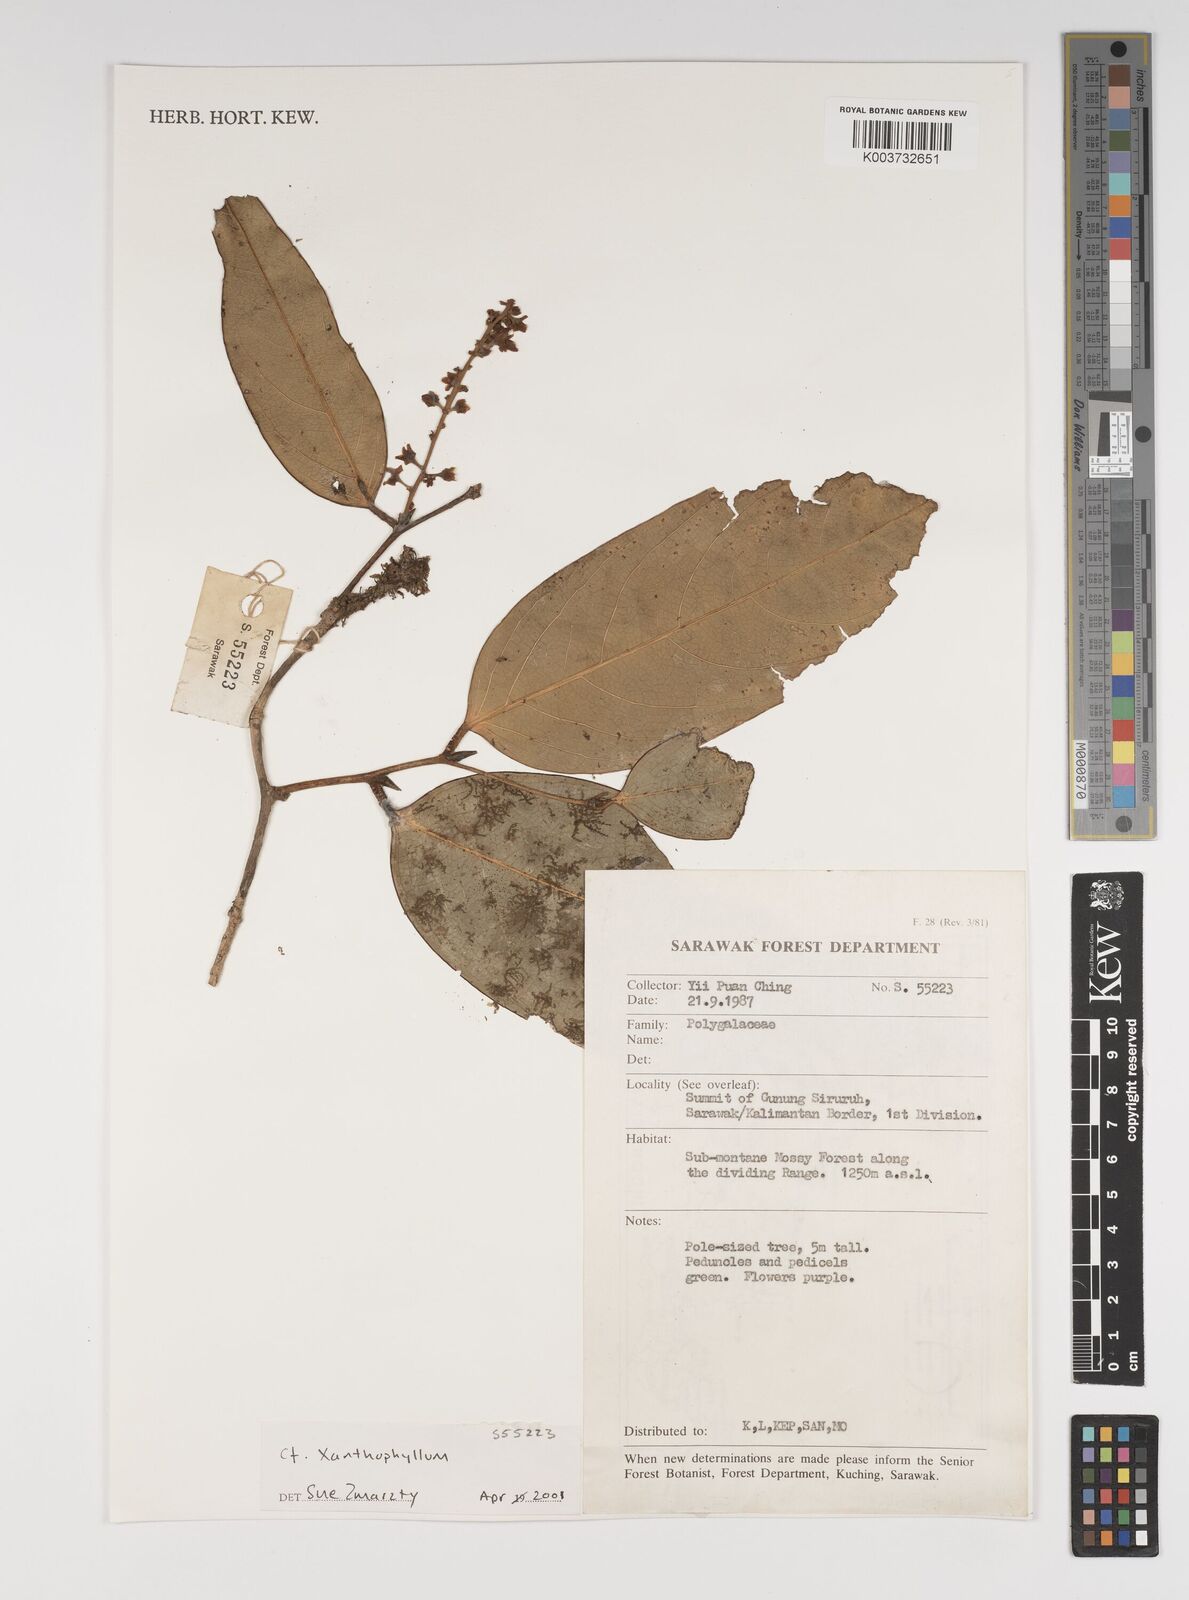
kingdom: Plantae
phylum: Tracheophyta
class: Magnoliopsida
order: Fabales
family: Polygalaceae
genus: Xanthophyllum
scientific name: Xanthophyllum
